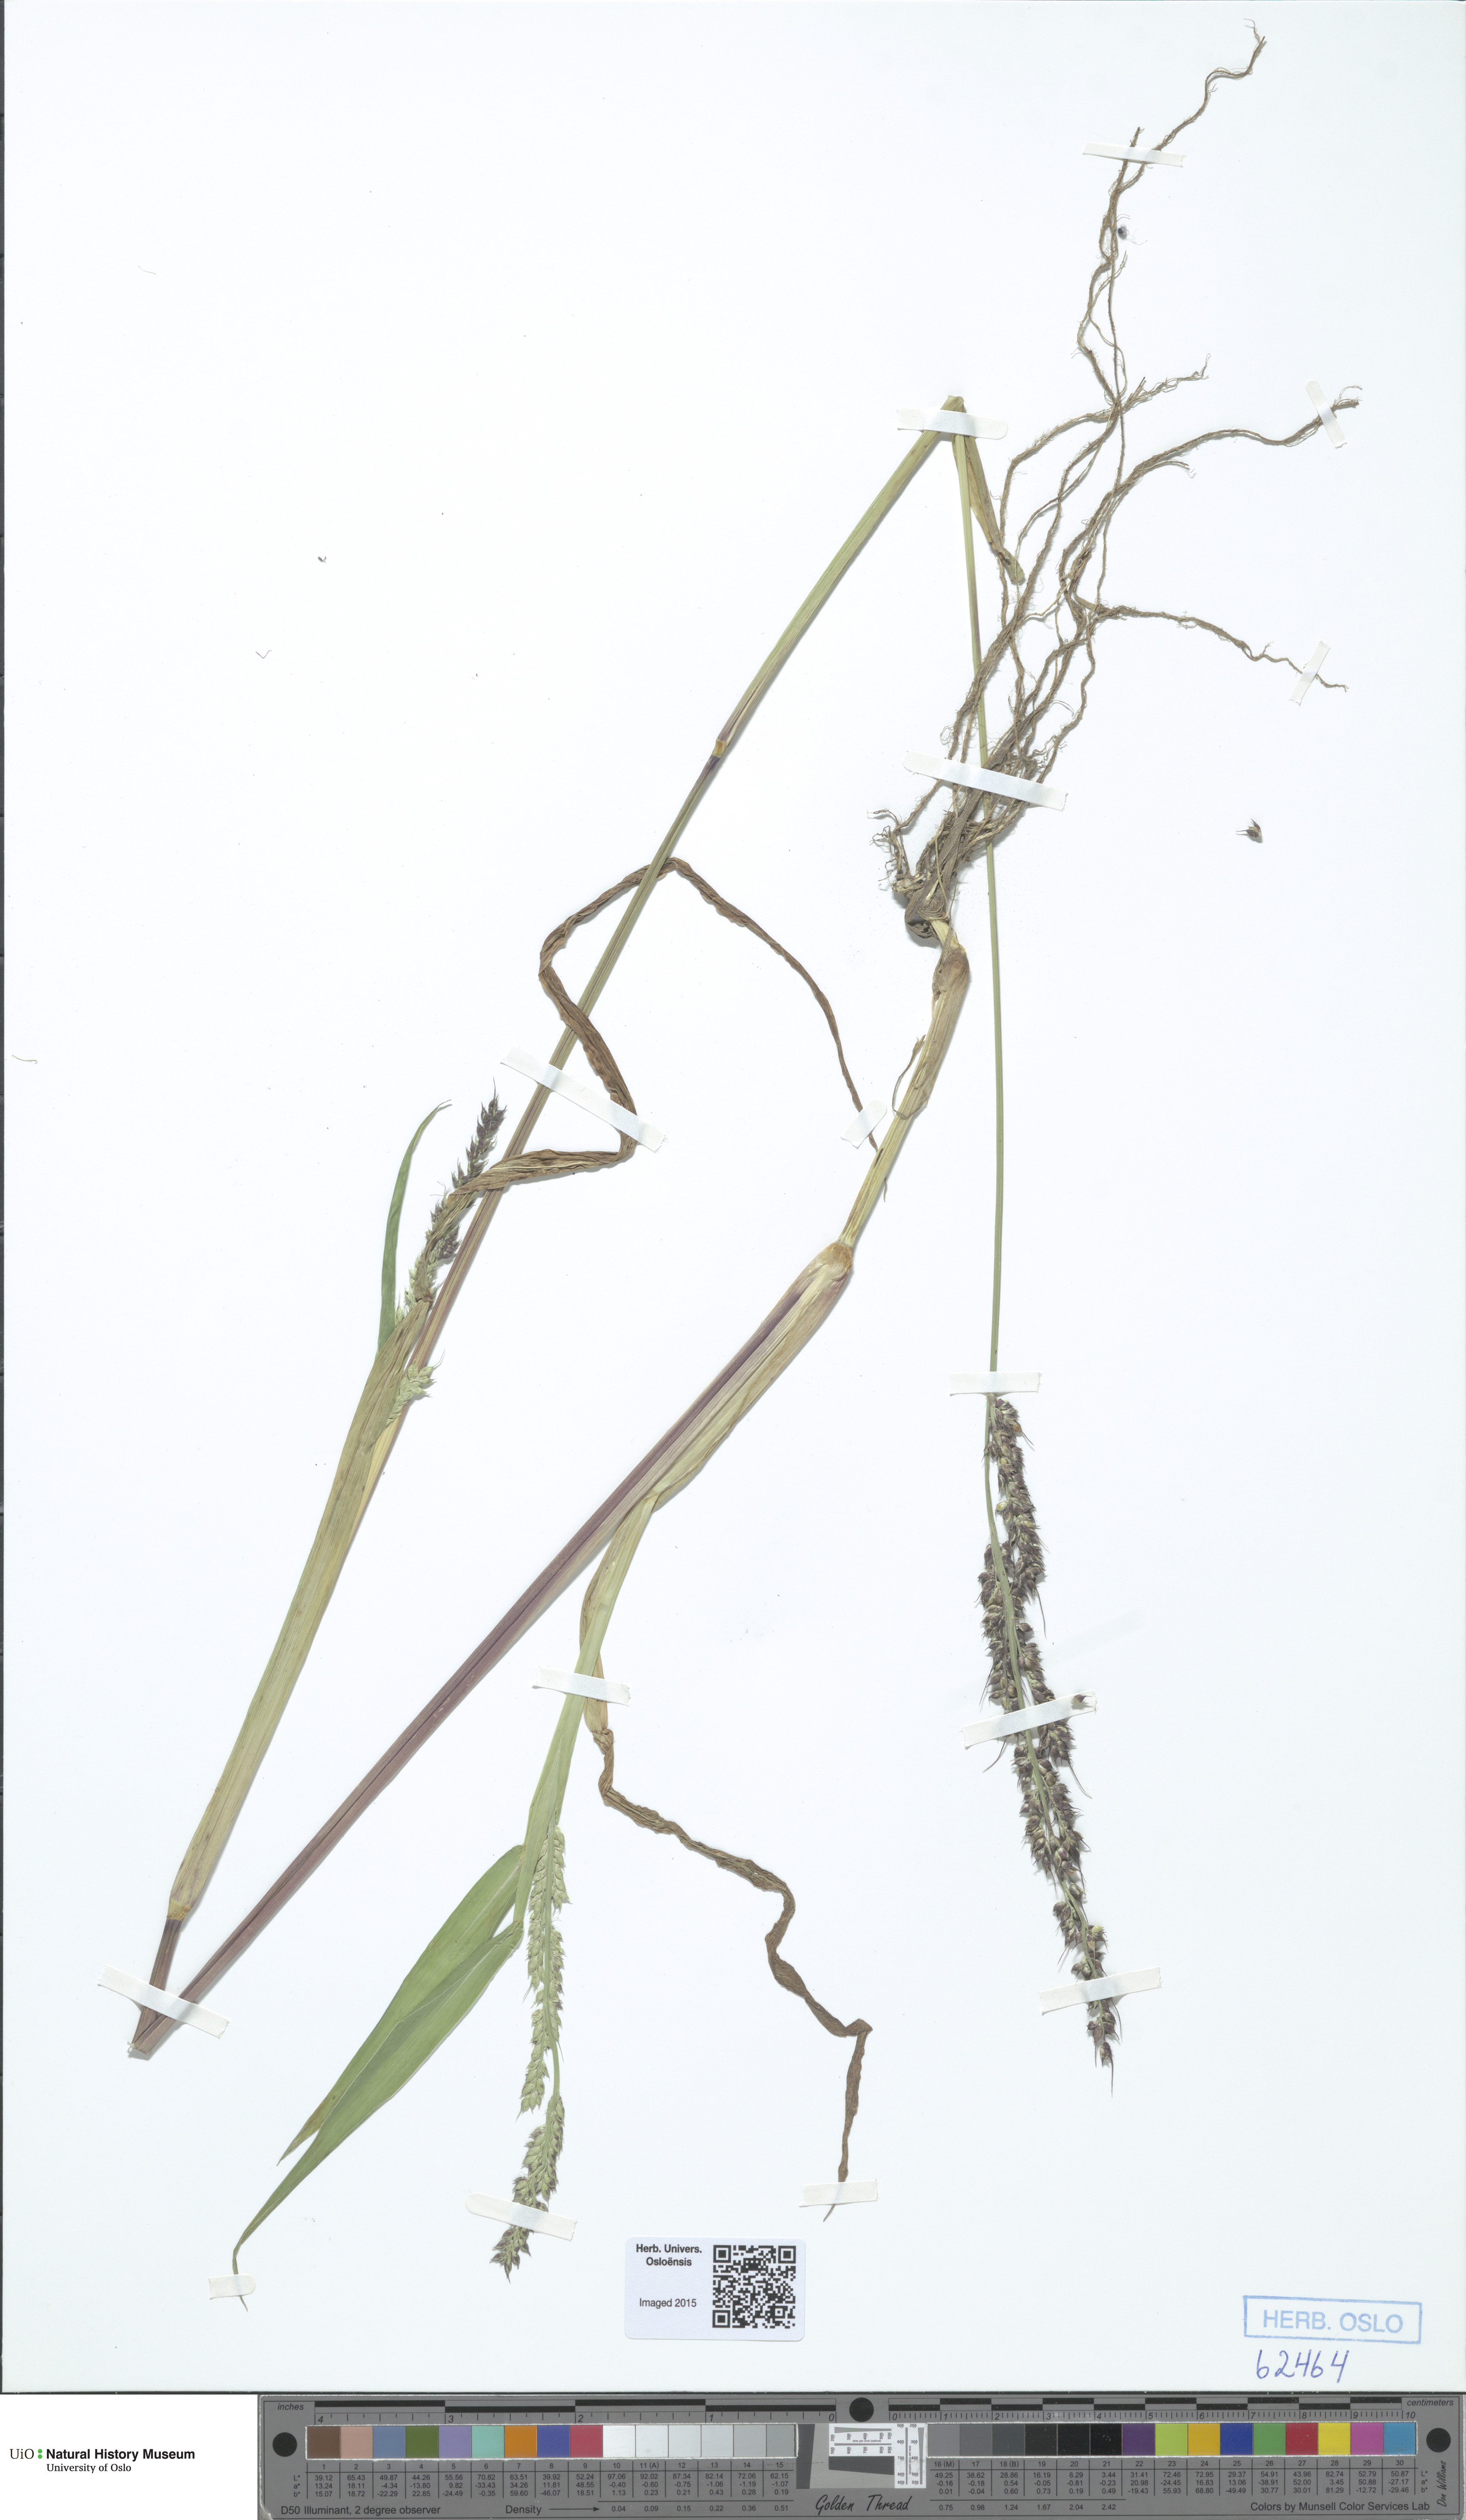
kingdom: Plantae
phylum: Tracheophyta
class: Liliopsida
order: Poales
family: Poaceae
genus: Echinochloa
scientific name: Echinochloa crus-galli
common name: Cockspur
